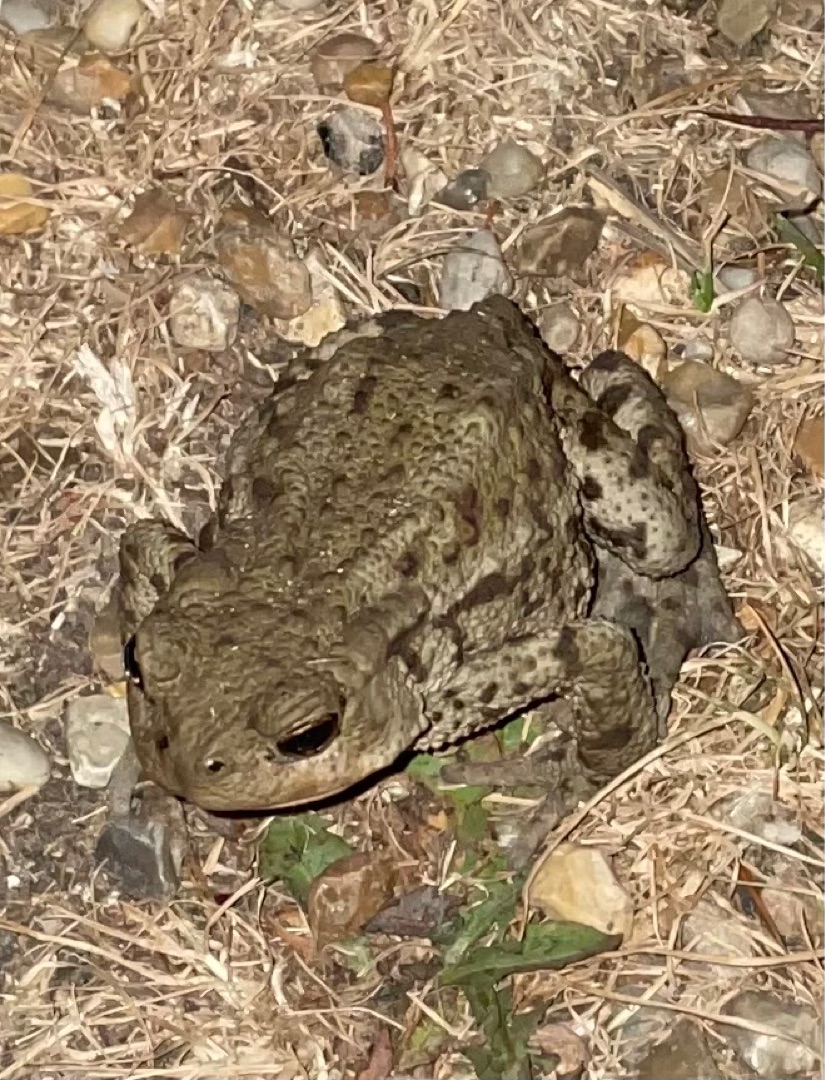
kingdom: Animalia
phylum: Chordata
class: Amphibia
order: Anura
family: Bufonidae
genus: Bufo
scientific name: Bufo bufo
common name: Skrubtudse
